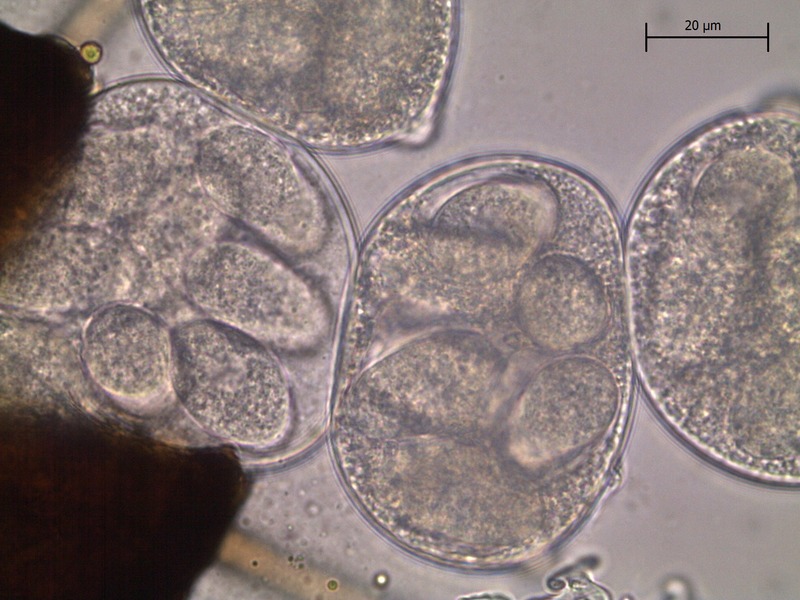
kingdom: Fungi
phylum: Ascomycota
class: Leotiomycetes
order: Helotiales
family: Erysiphaceae
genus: Erysiphe
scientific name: Erysiphe syringae
